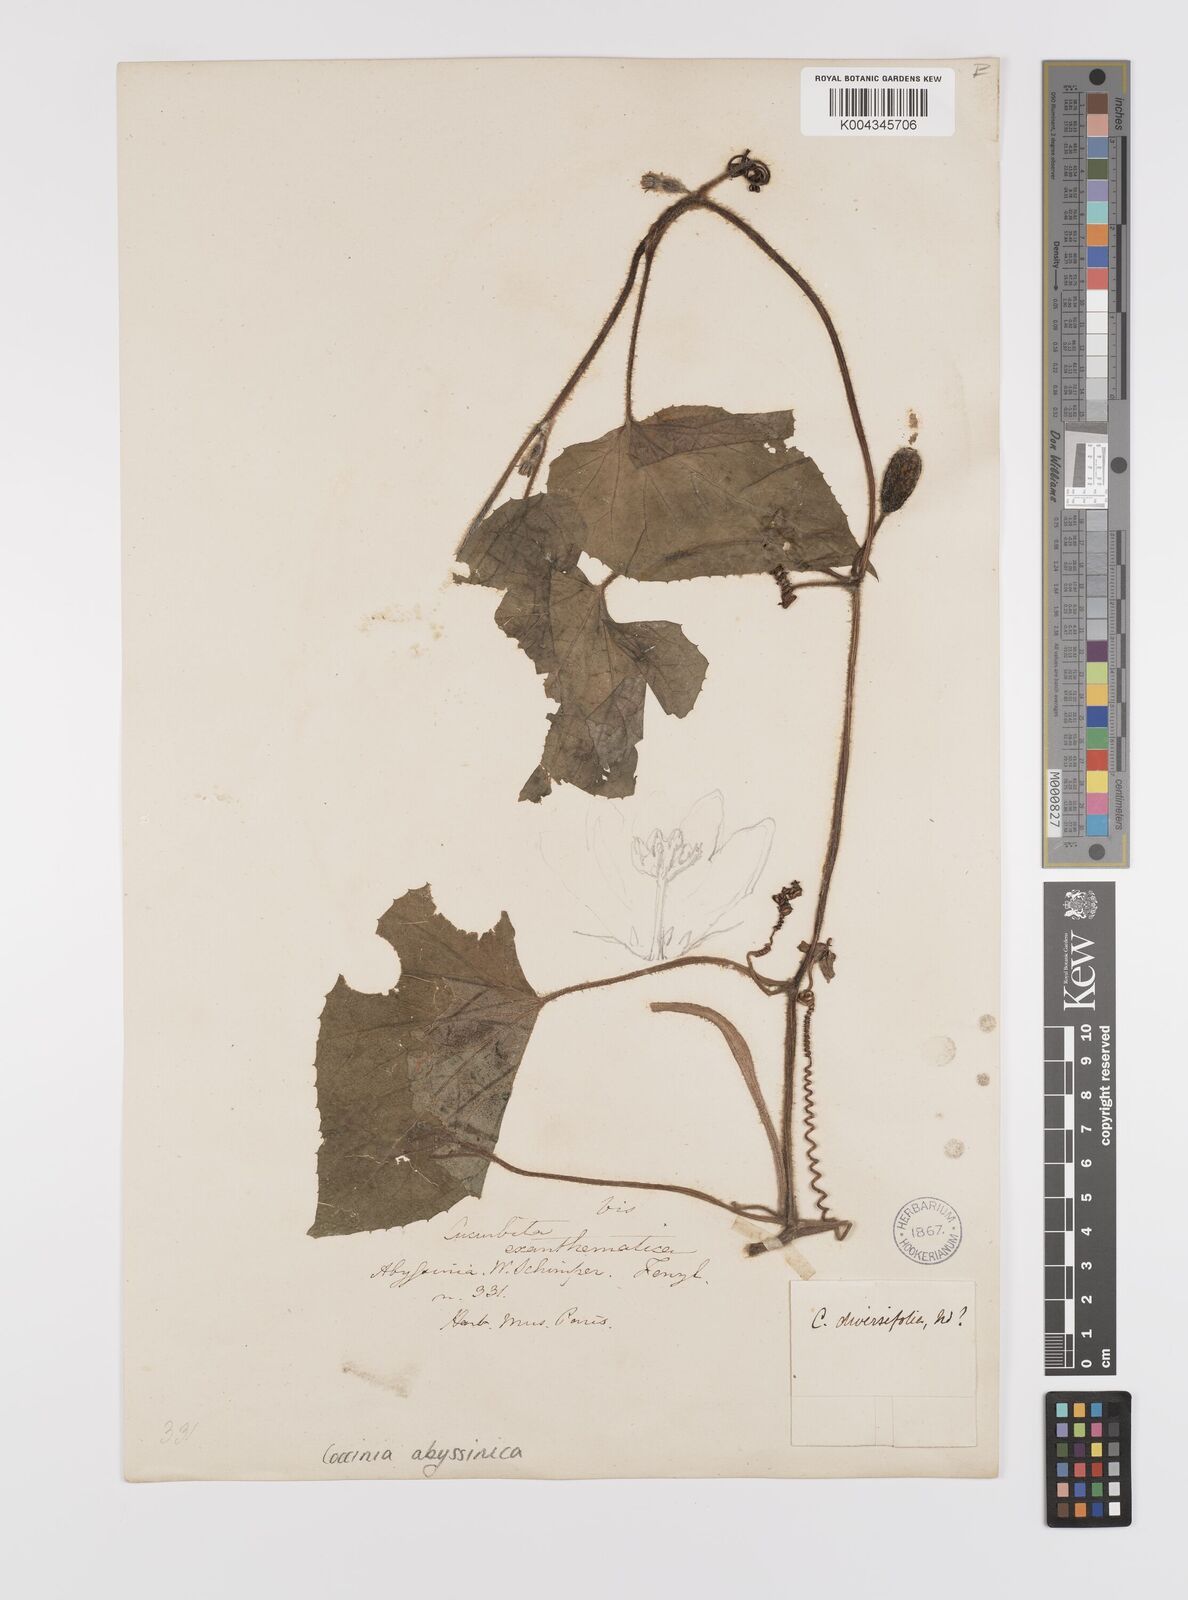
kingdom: Plantae
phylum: Tracheophyta
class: Magnoliopsida
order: Cucurbitales
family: Cucurbitaceae
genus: Coccinia
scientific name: Coccinia abyssinica
